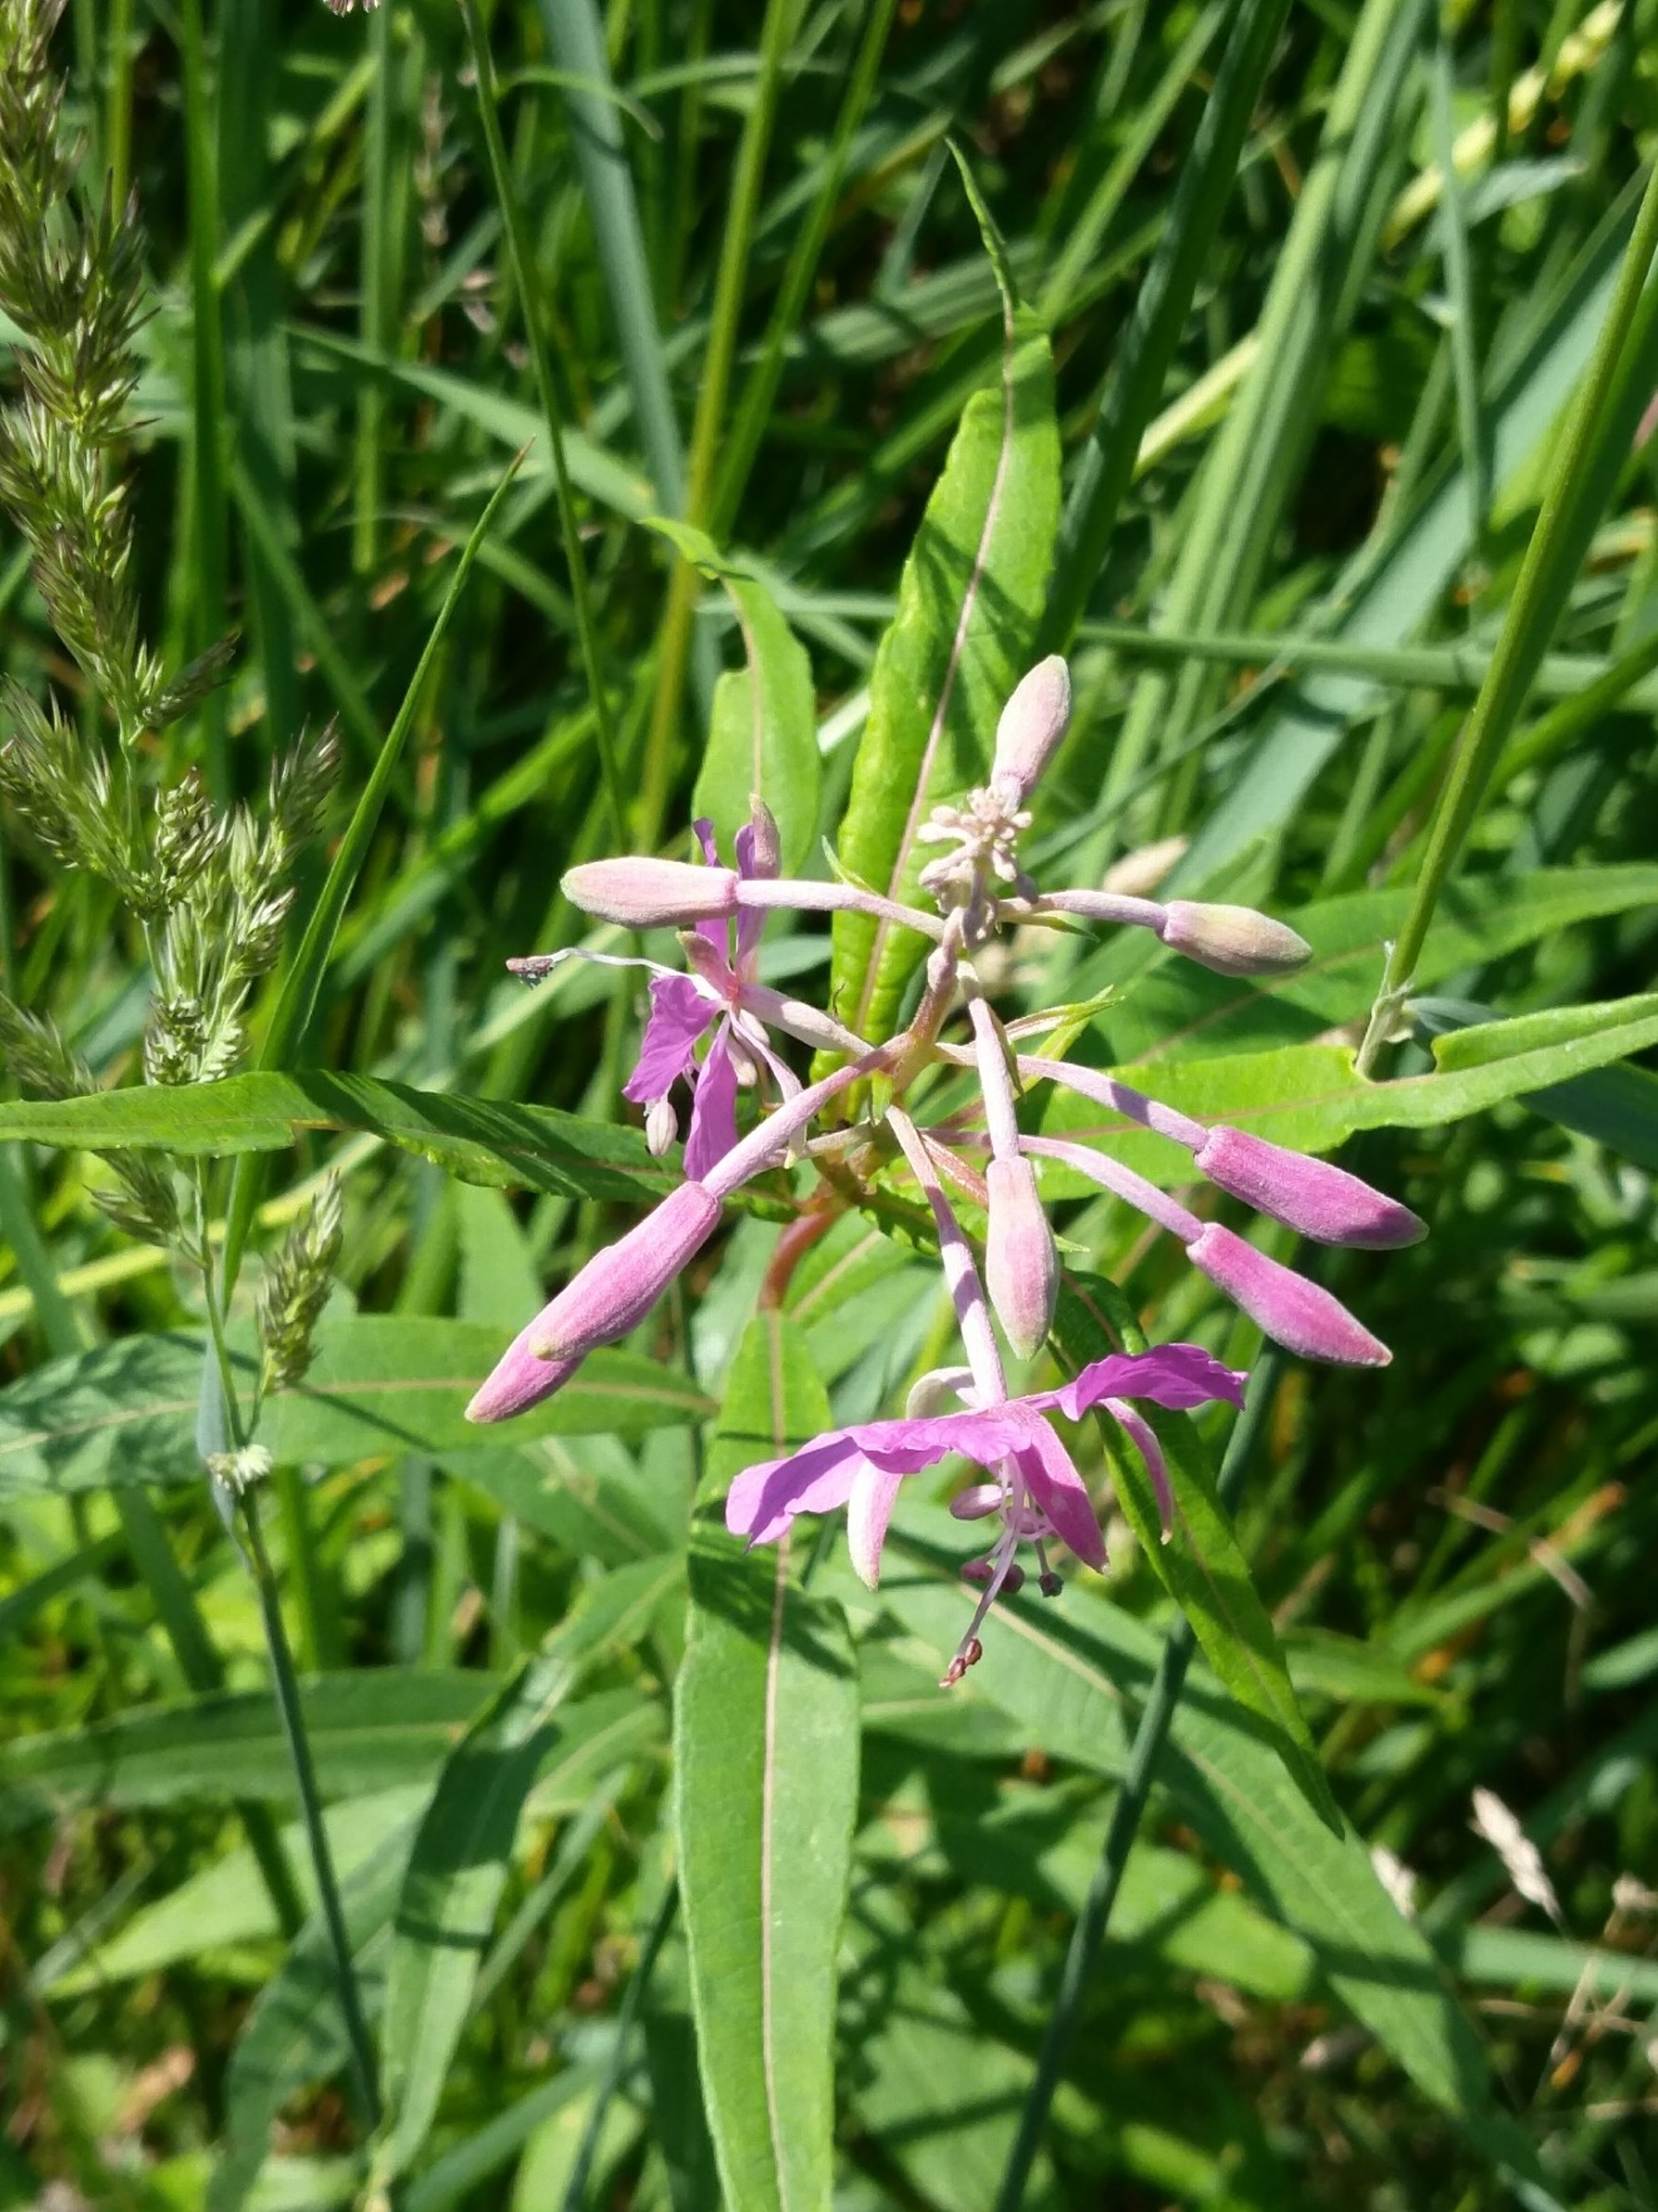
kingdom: Plantae
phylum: Tracheophyta
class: Magnoliopsida
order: Myrtales
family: Onagraceae
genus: Chamaenerion
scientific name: Chamaenerion angustifolium
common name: Gederams
